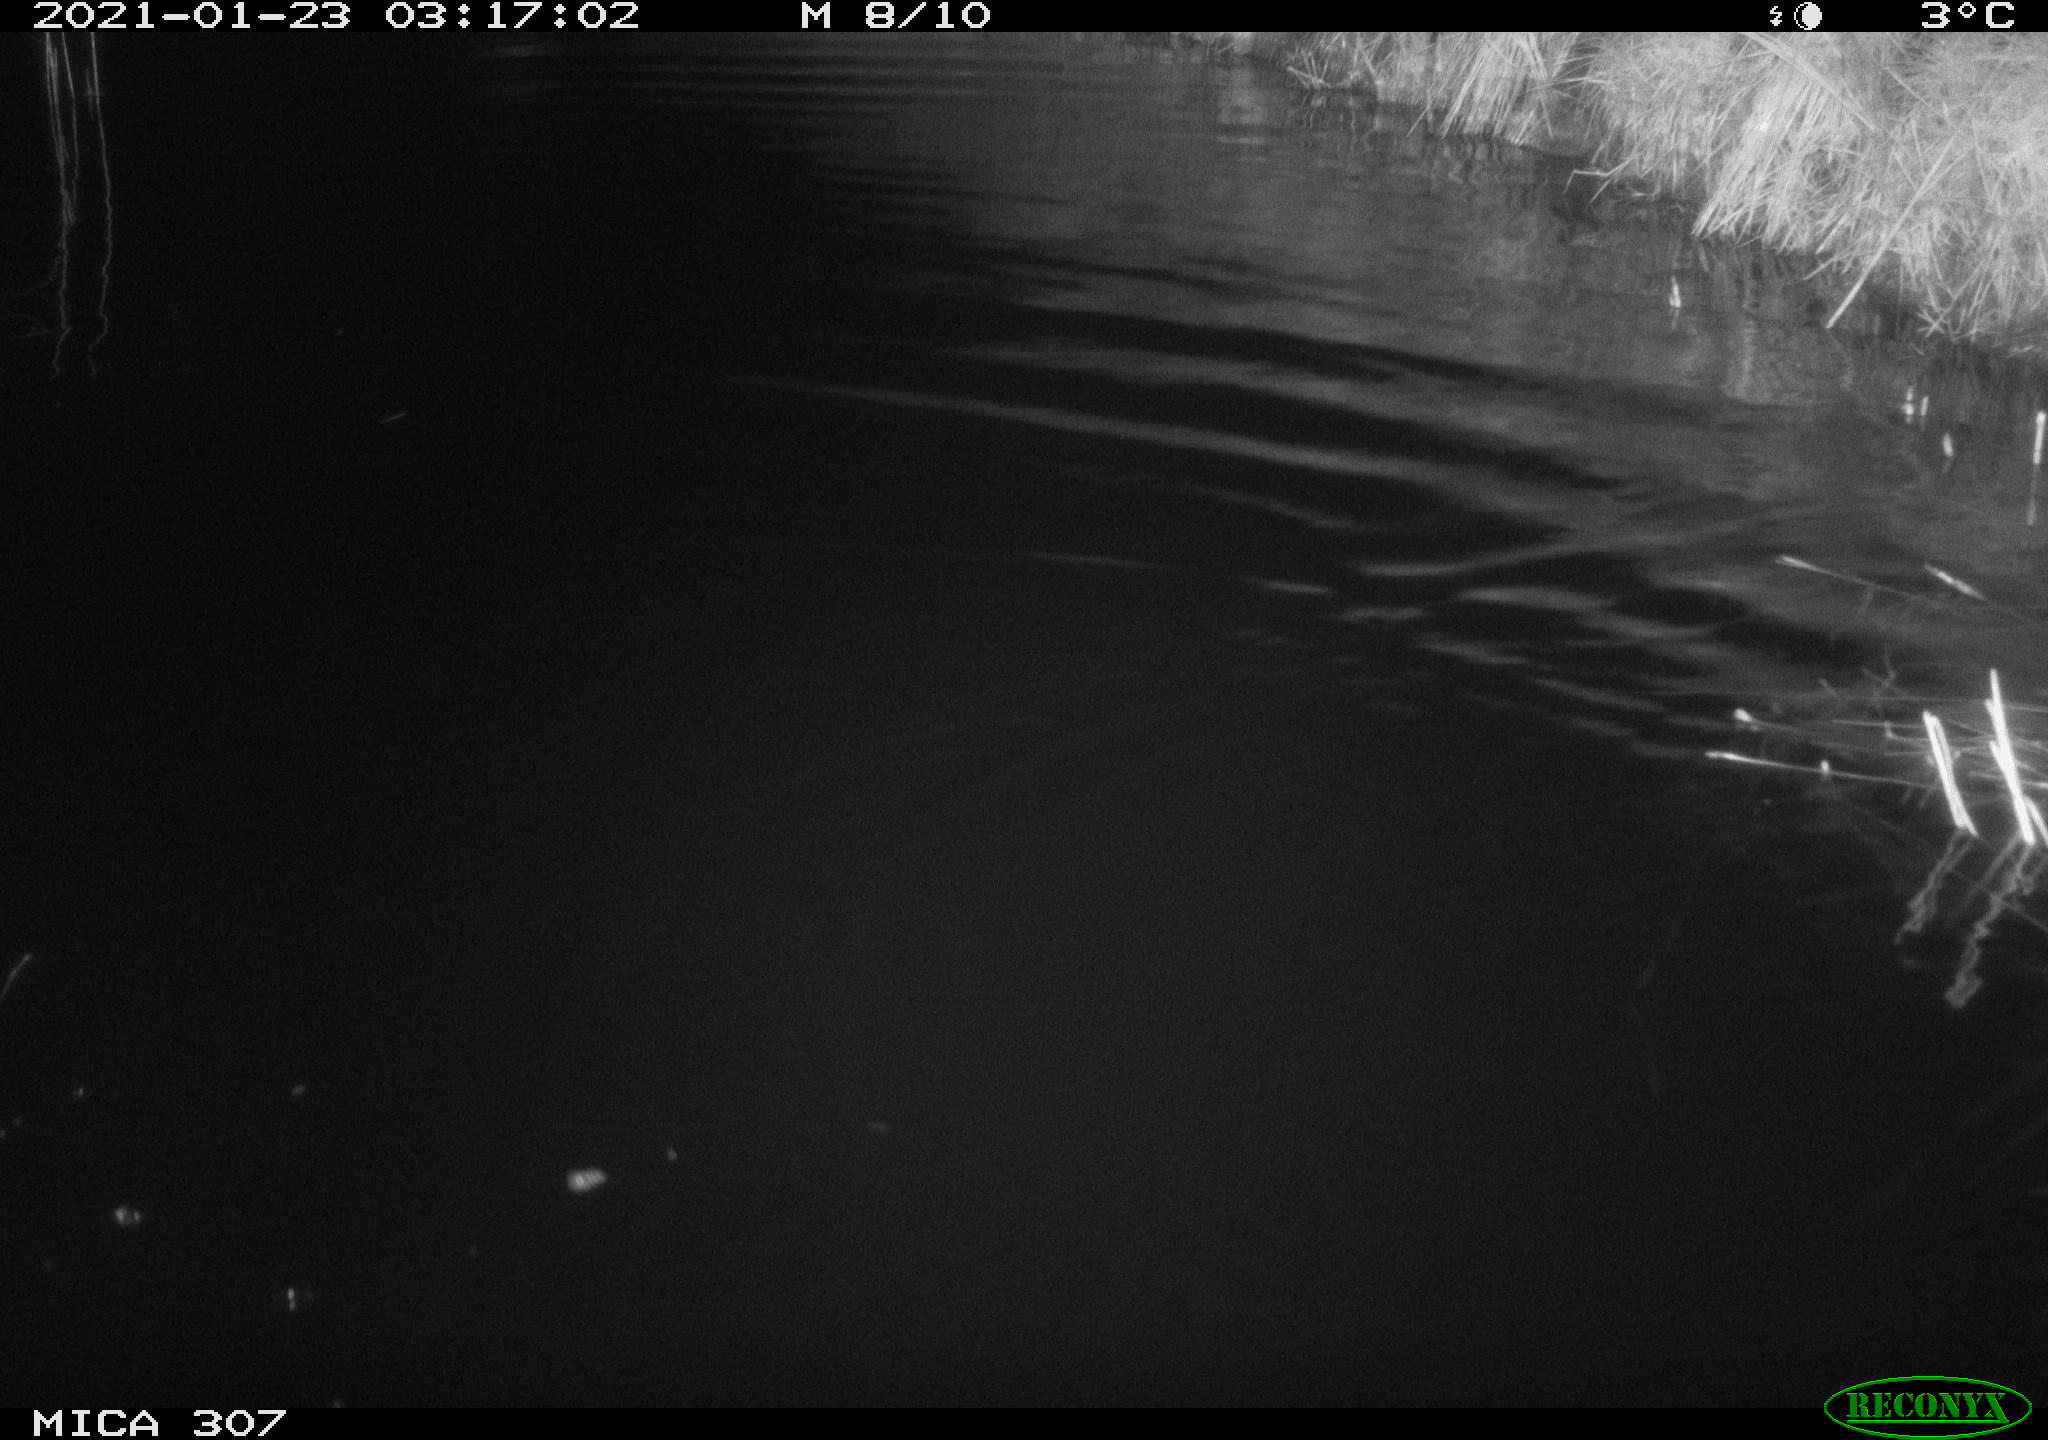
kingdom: Animalia
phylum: Chordata
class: Mammalia
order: Rodentia
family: Muridae
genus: Rattus
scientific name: Rattus norvegicus
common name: Brown rat
